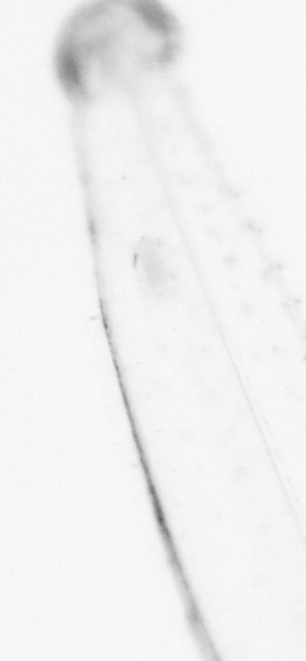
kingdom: Animalia
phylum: Chaetognatha
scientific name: Chaetognatha
